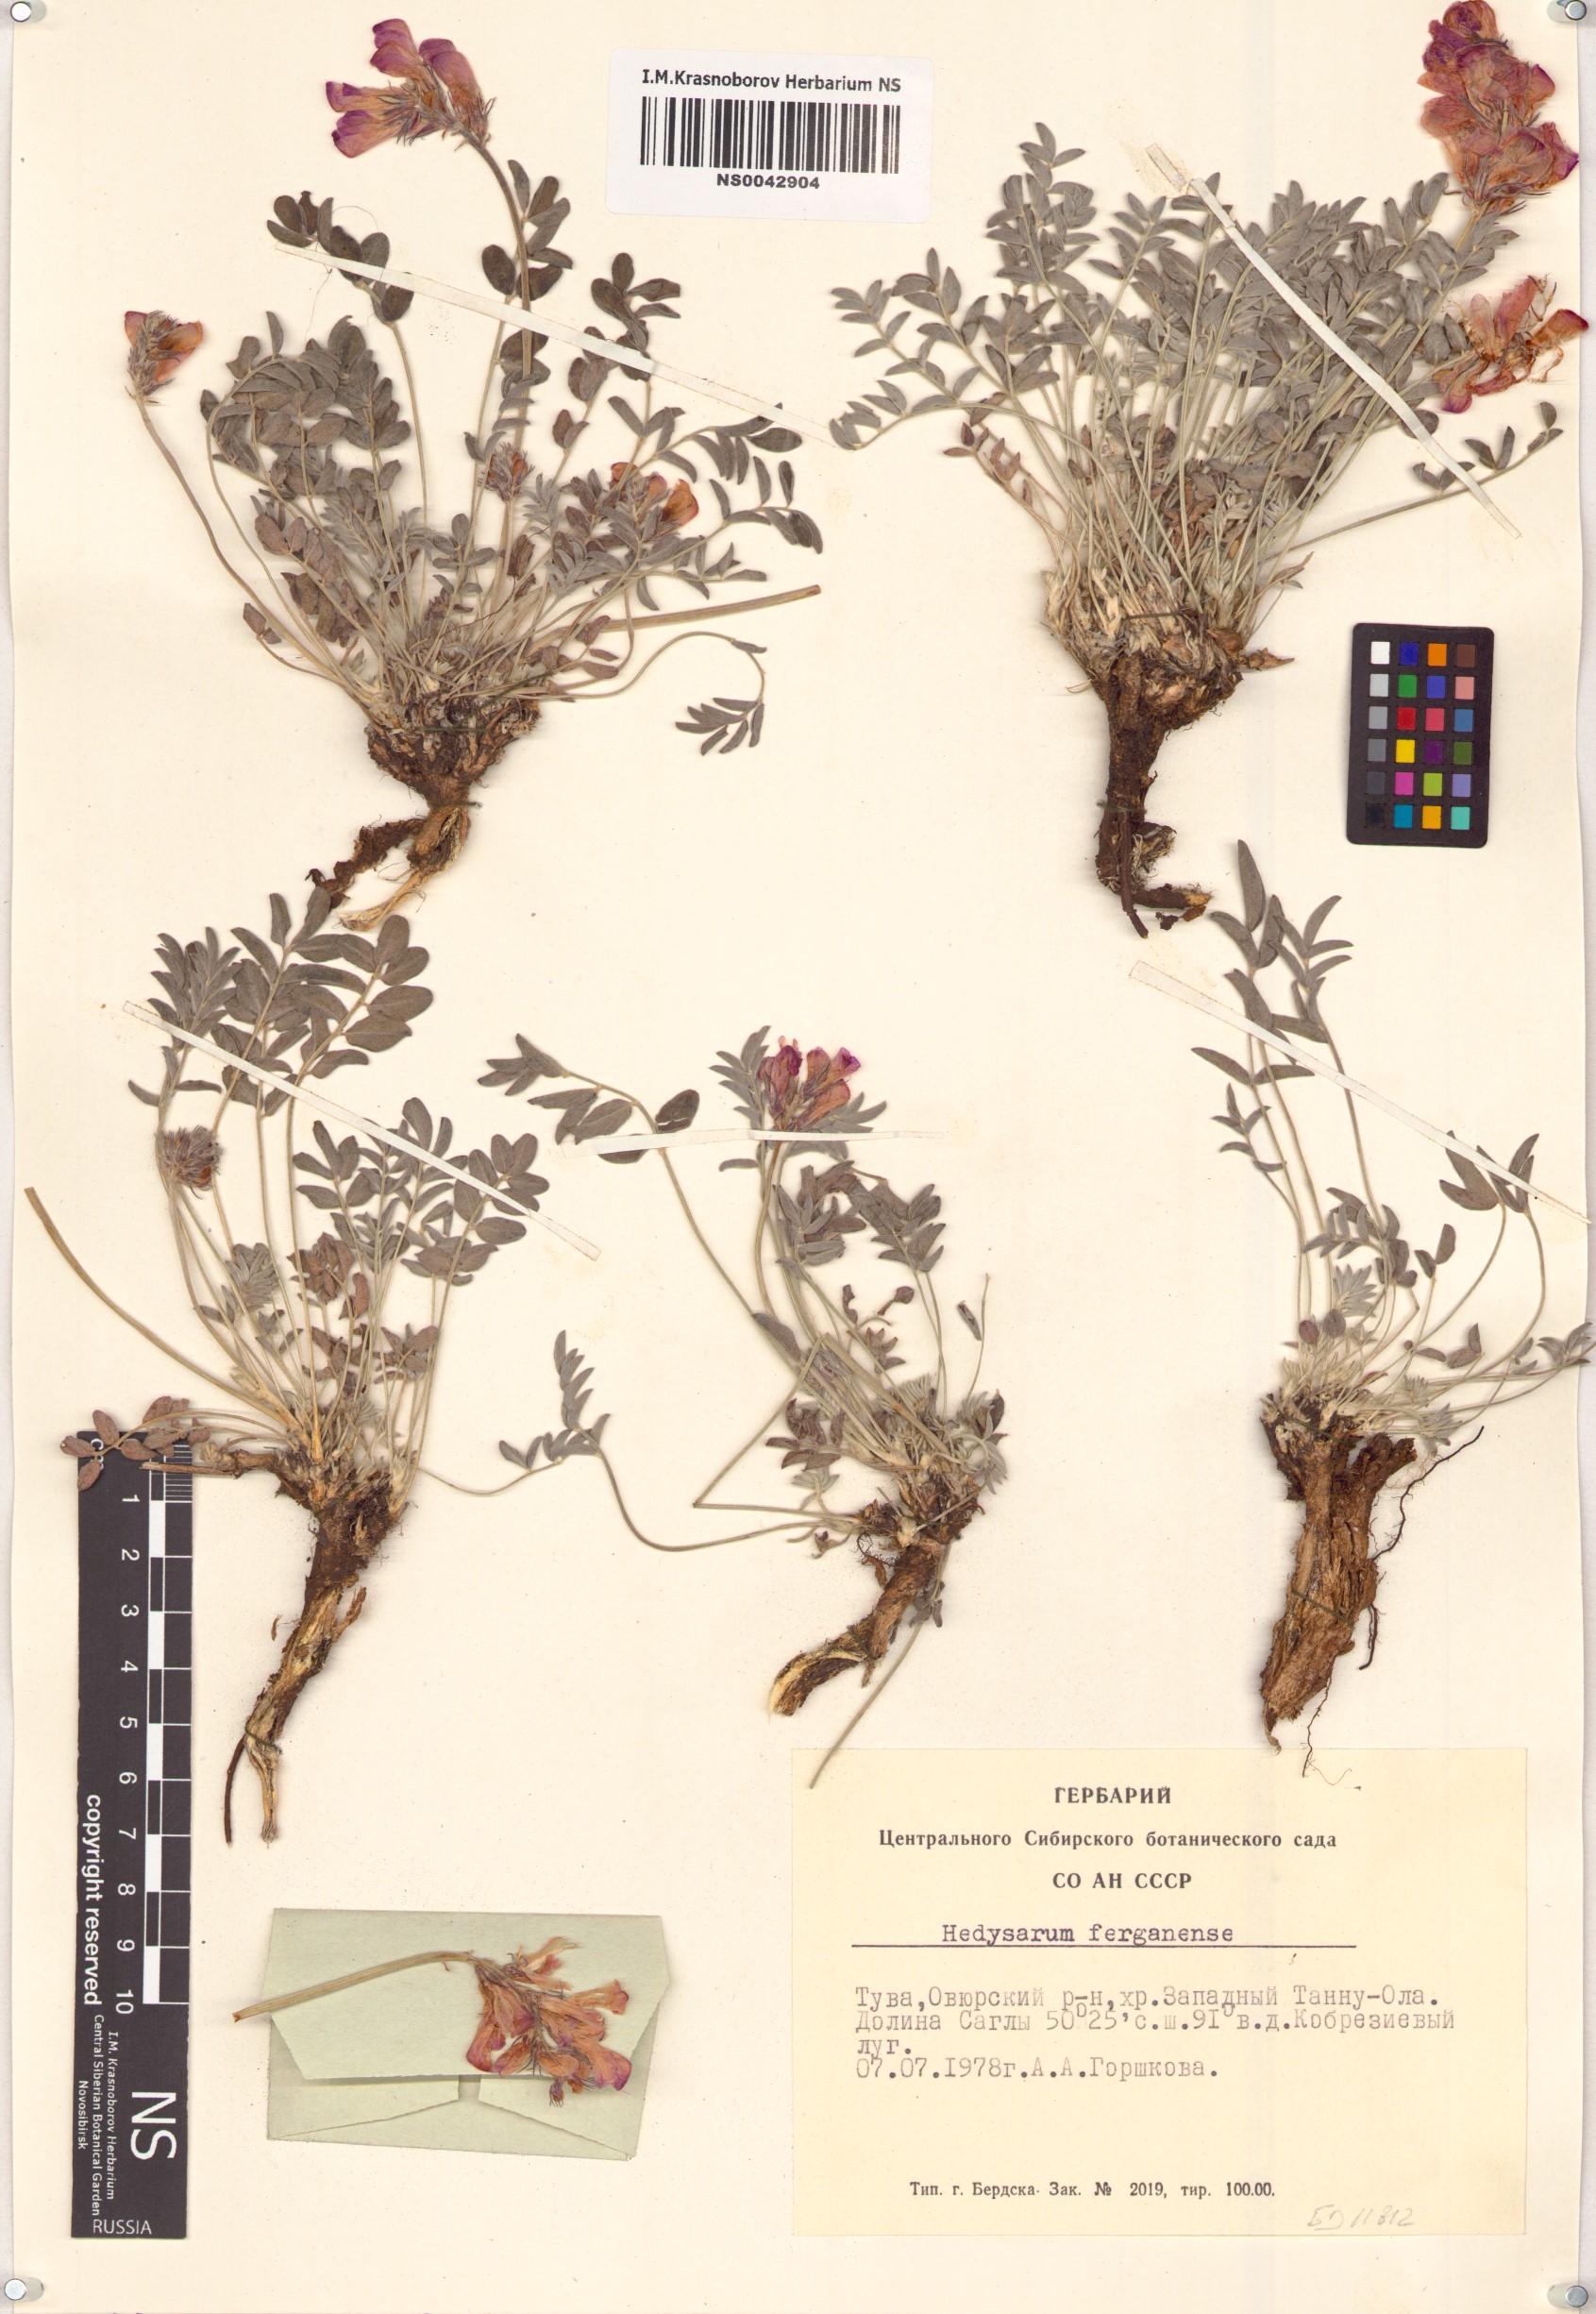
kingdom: Plantae
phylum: Tracheophyta
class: Magnoliopsida
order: Fabales
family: Fabaceae
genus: Hedysarum
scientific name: Hedysarum ferganense
